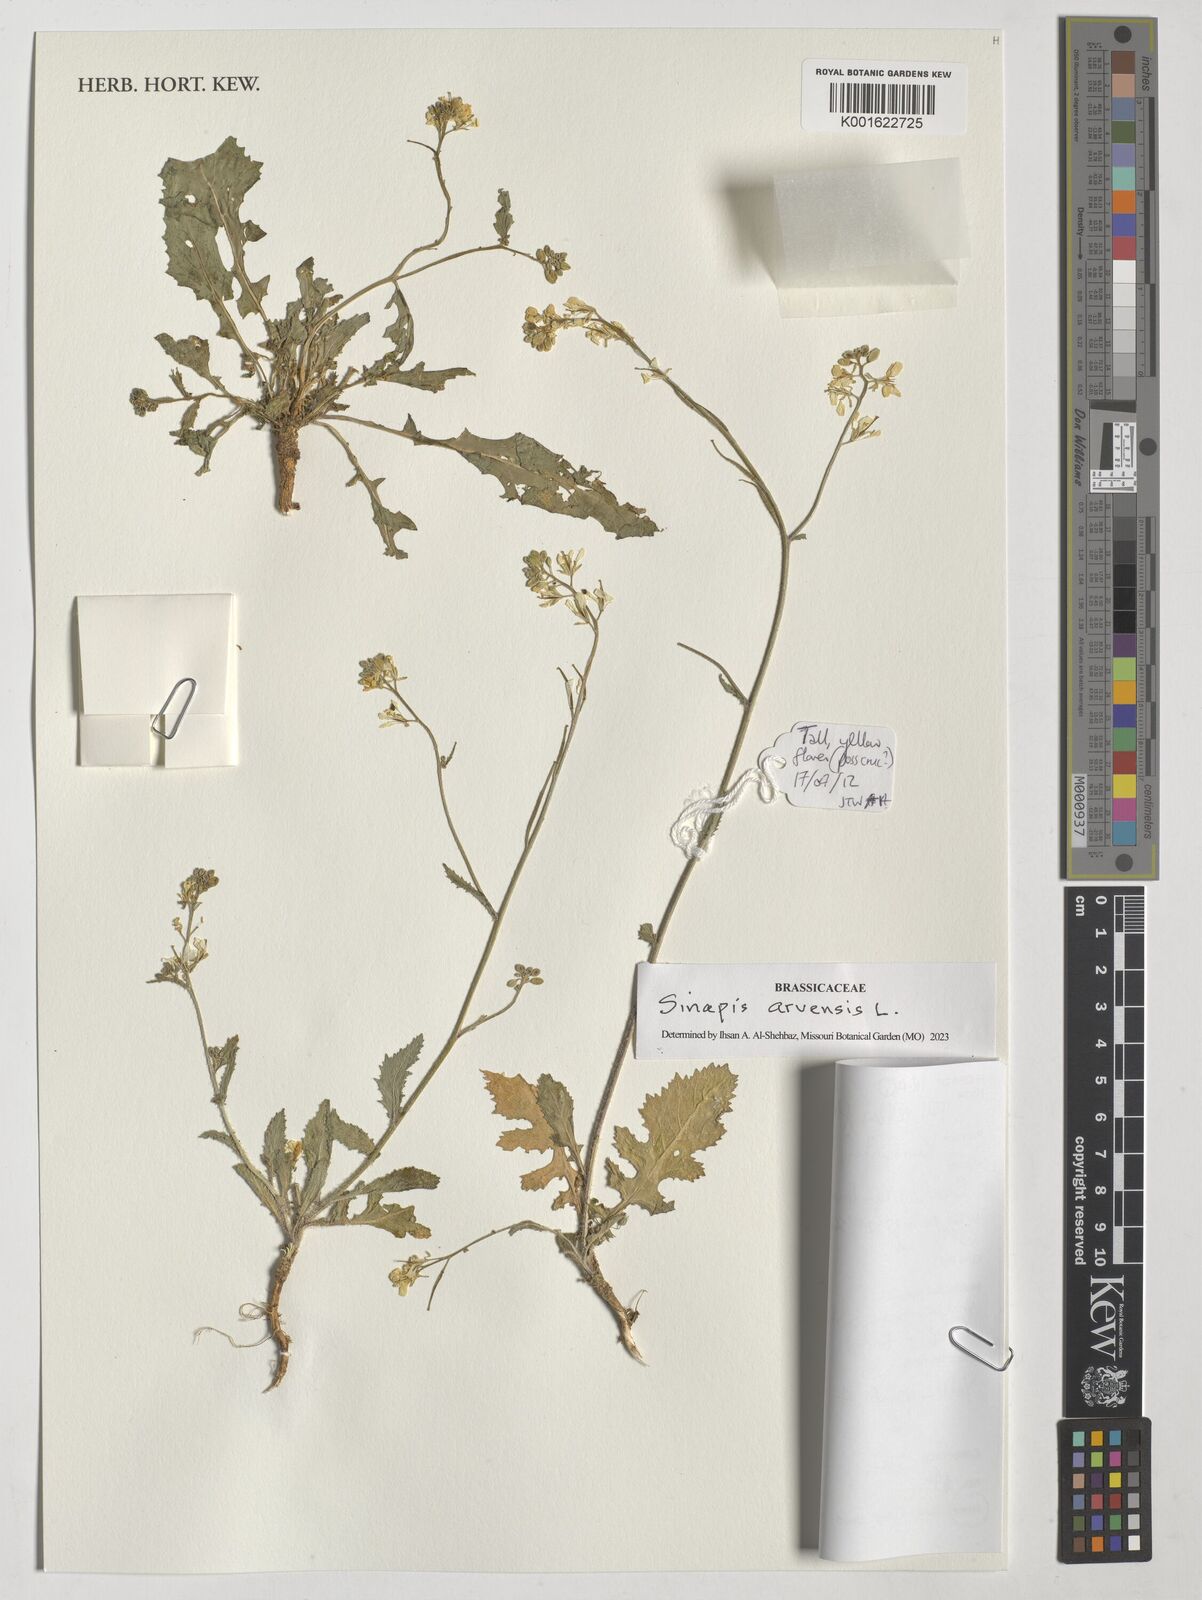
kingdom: Plantae
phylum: Tracheophyta
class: Magnoliopsida
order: Brassicales
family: Brassicaceae
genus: Sinapis
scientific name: Sinapis arvensis
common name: Charlock
